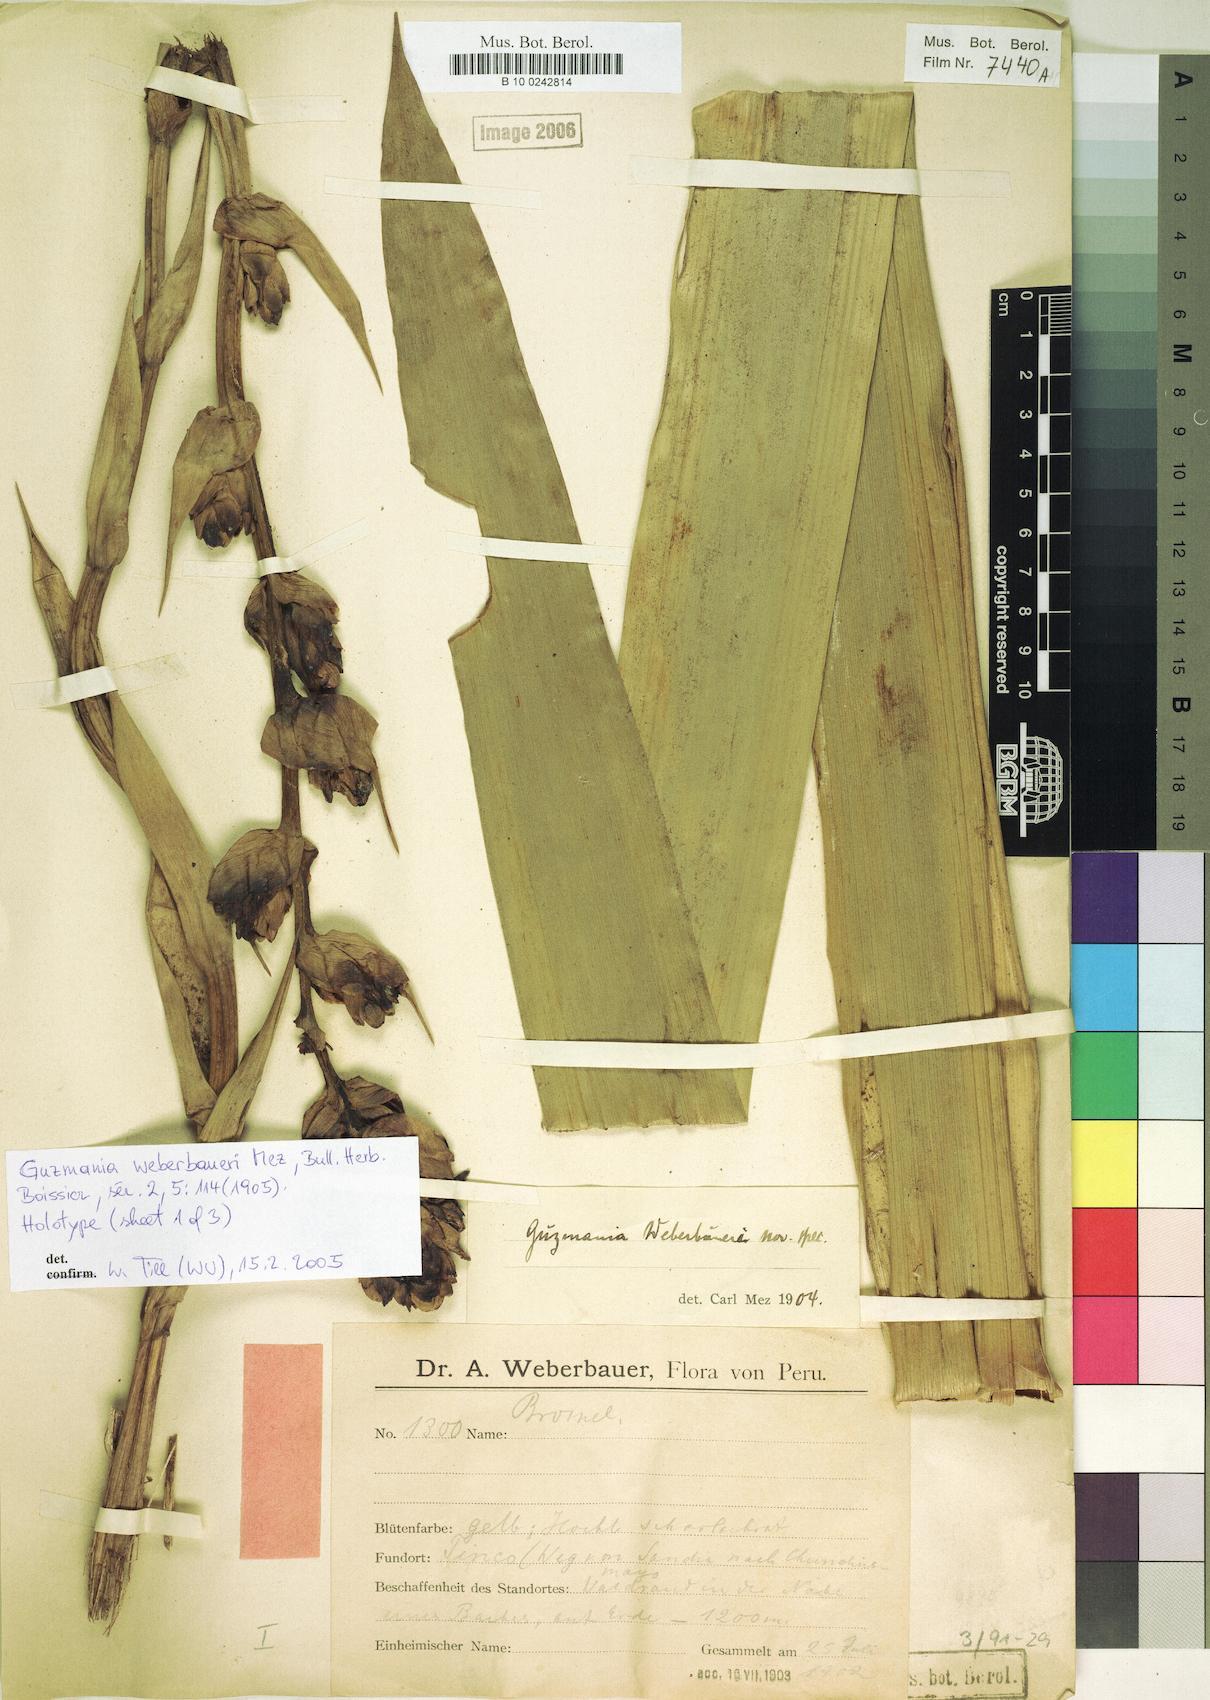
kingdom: Plantae
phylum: Tracheophyta
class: Liliopsida
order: Poales
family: Bromeliaceae
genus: Guzmania
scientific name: Guzmania weberbaueri
